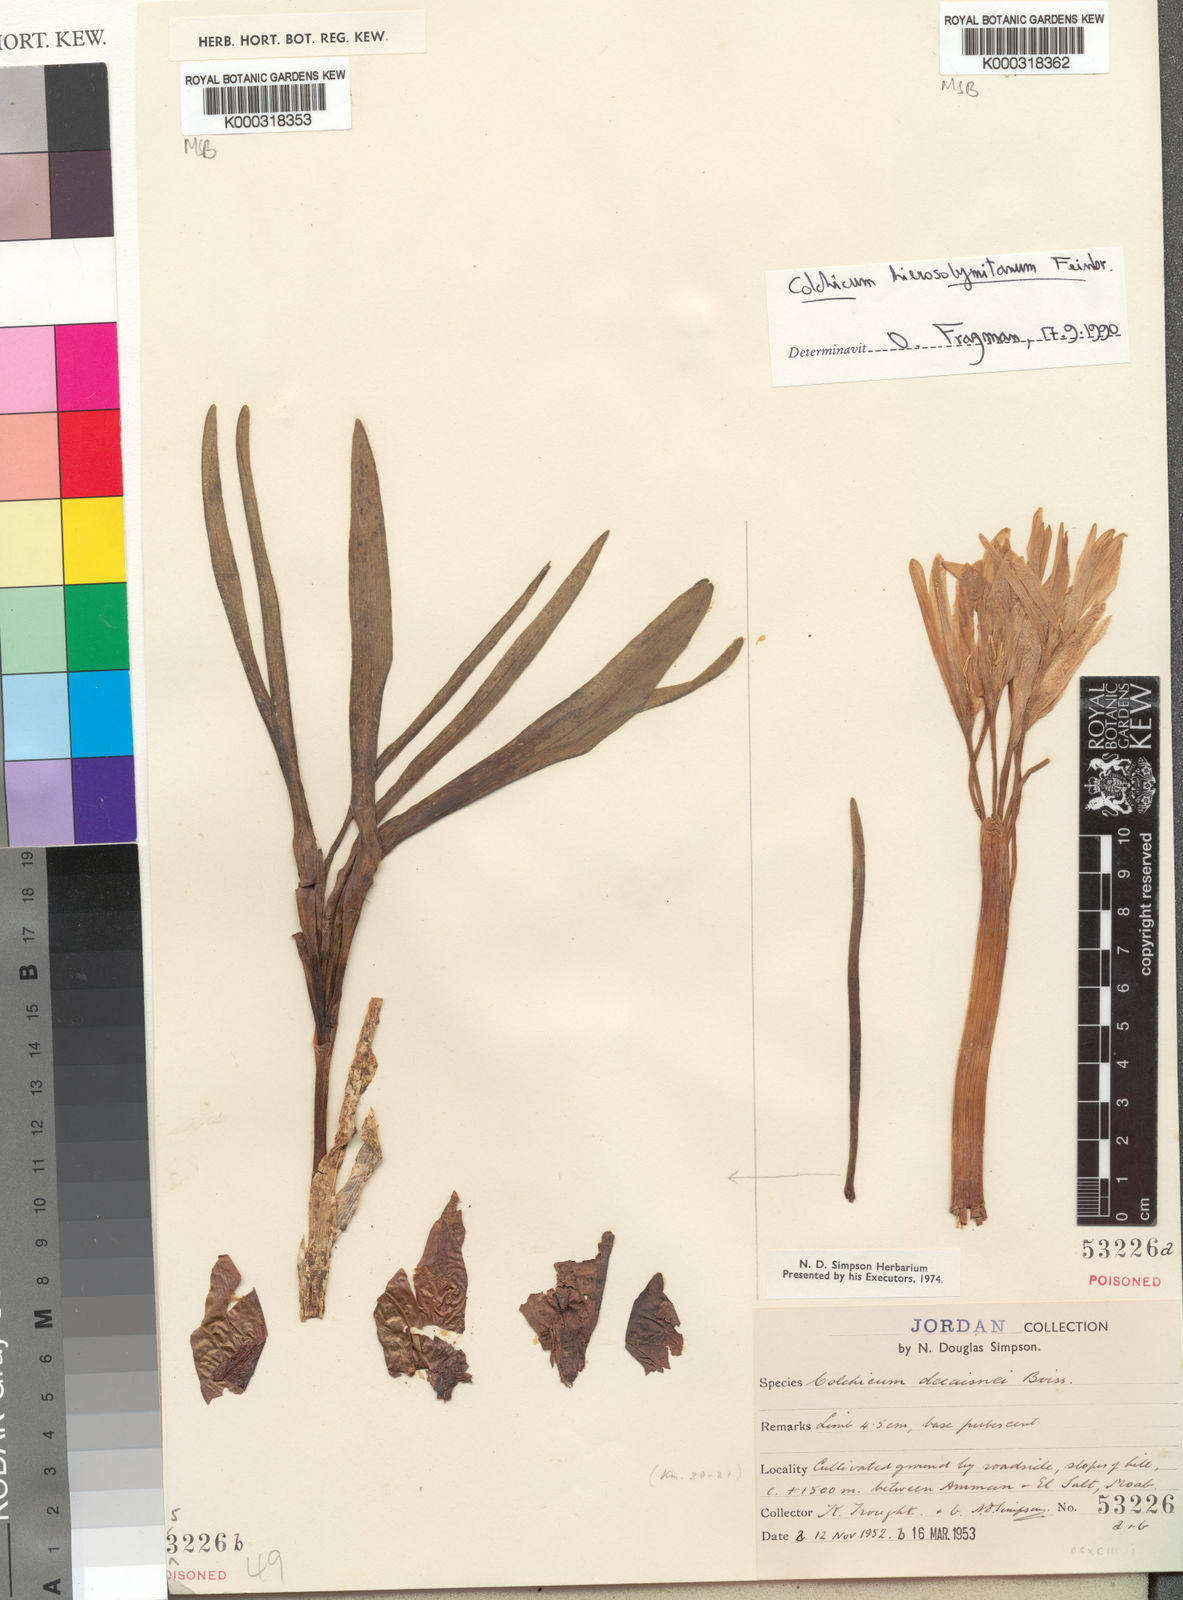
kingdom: Plantae
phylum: Tracheophyta
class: Liliopsida
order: Liliales
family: Colchicaceae
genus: Colchicum
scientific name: Colchicum hierosolymitanum
